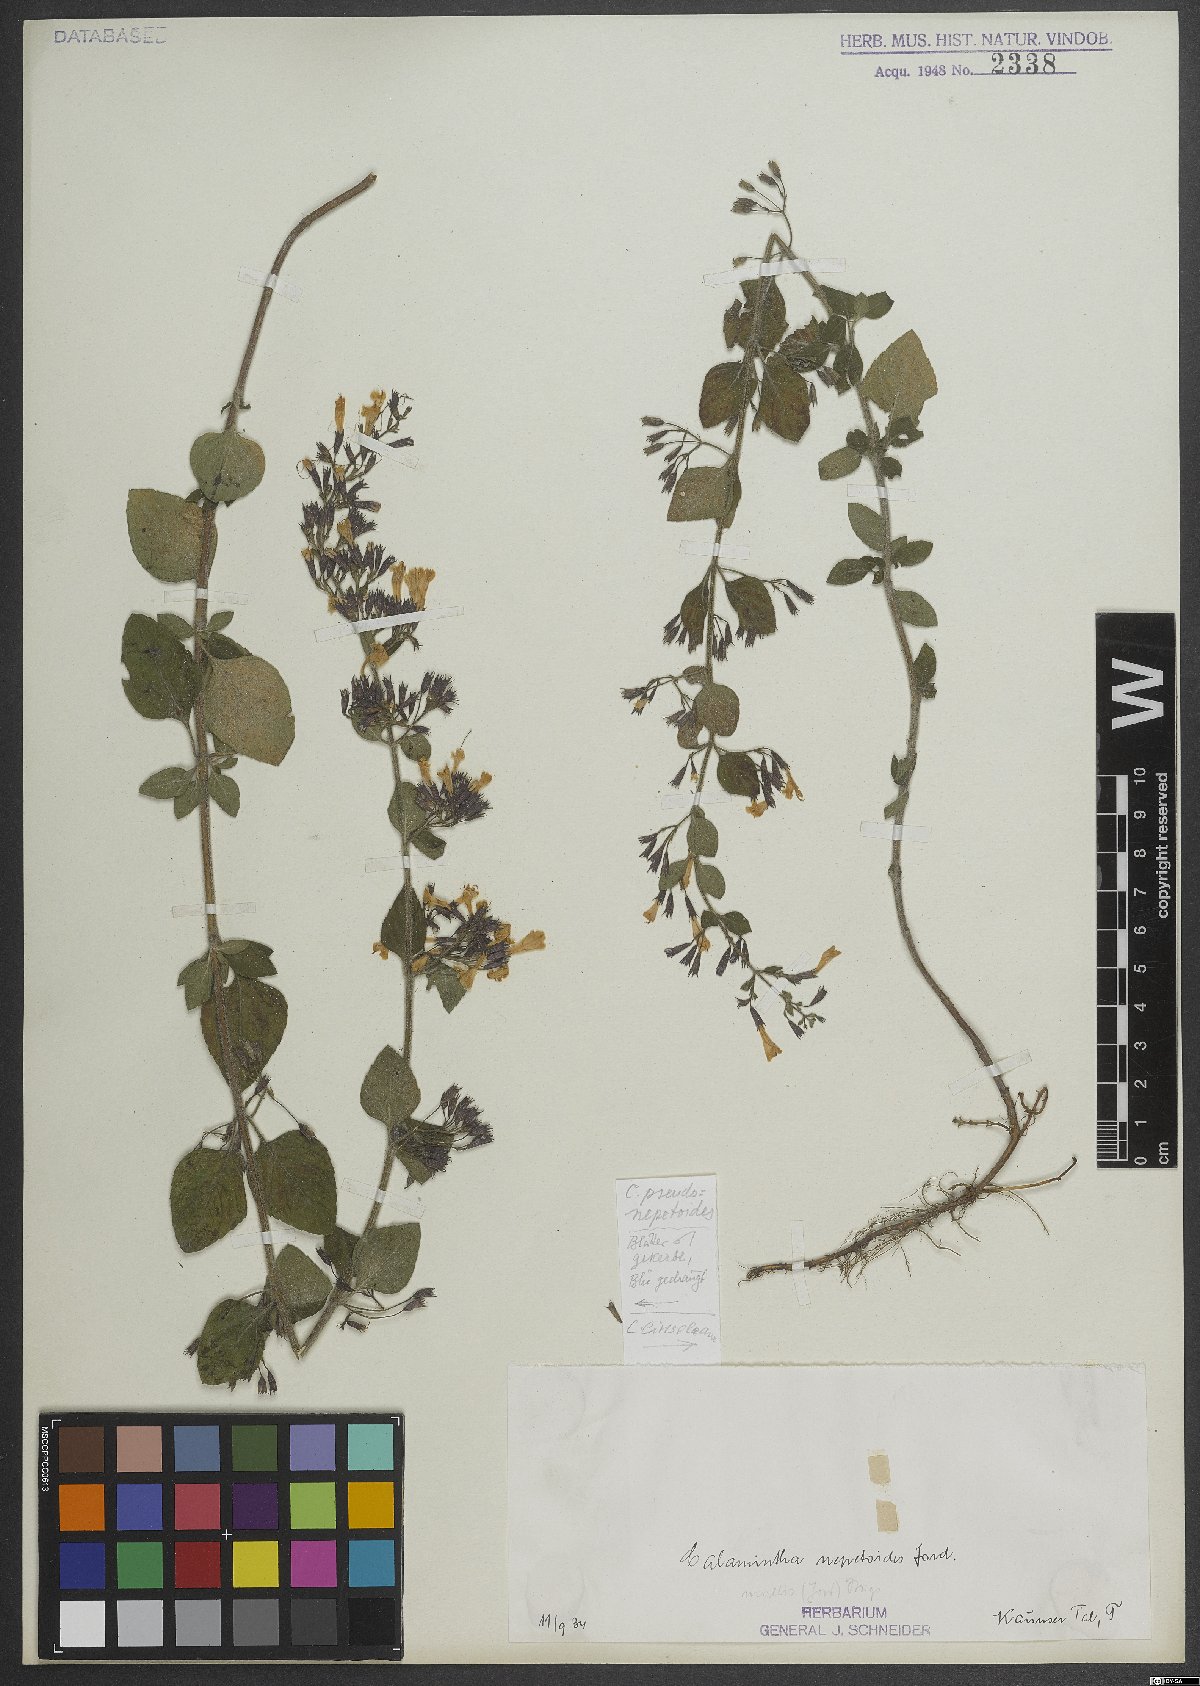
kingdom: Plantae
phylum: Tracheophyta
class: Magnoliopsida
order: Lamiales
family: Lamiaceae
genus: Clinopodium
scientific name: Clinopodium nepeta
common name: Lesser calamint
